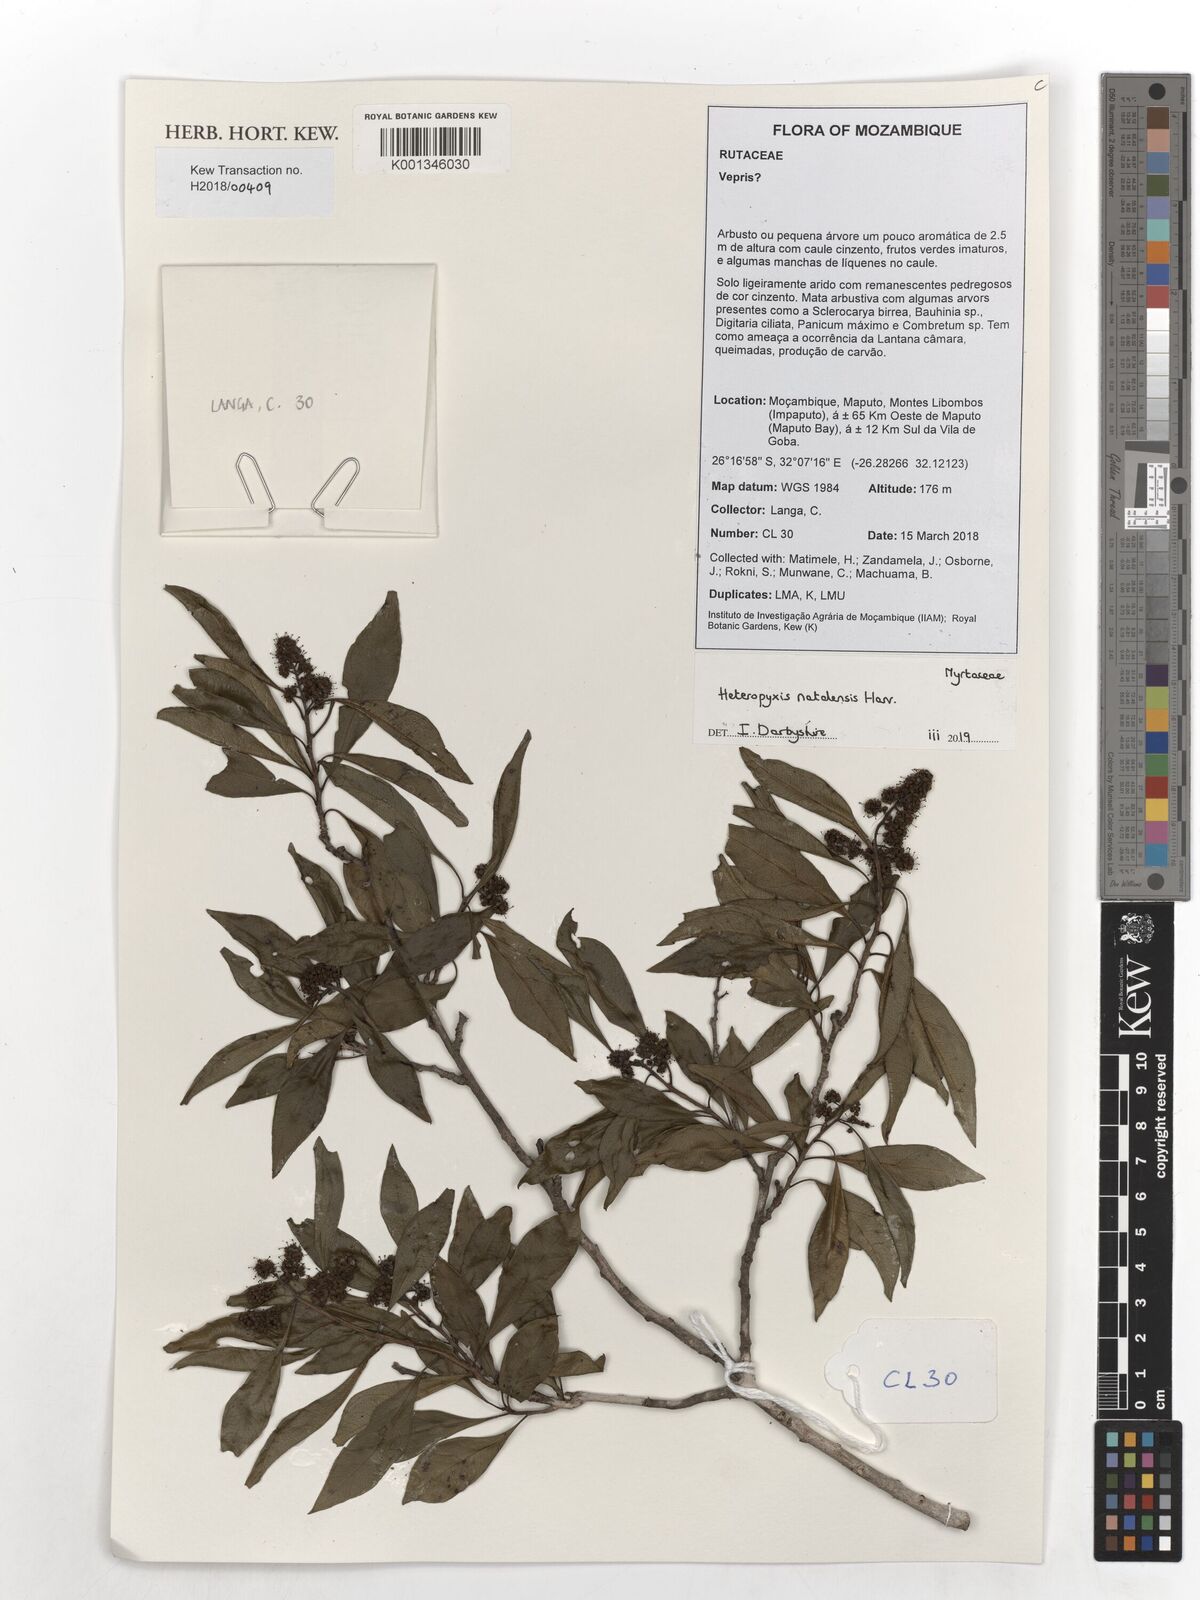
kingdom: Plantae
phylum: Tracheophyta
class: Magnoliopsida
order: Myrtales
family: Myrtaceae
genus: Heteropyxis
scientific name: Heteropyxis natalensis
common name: Lavender tree
